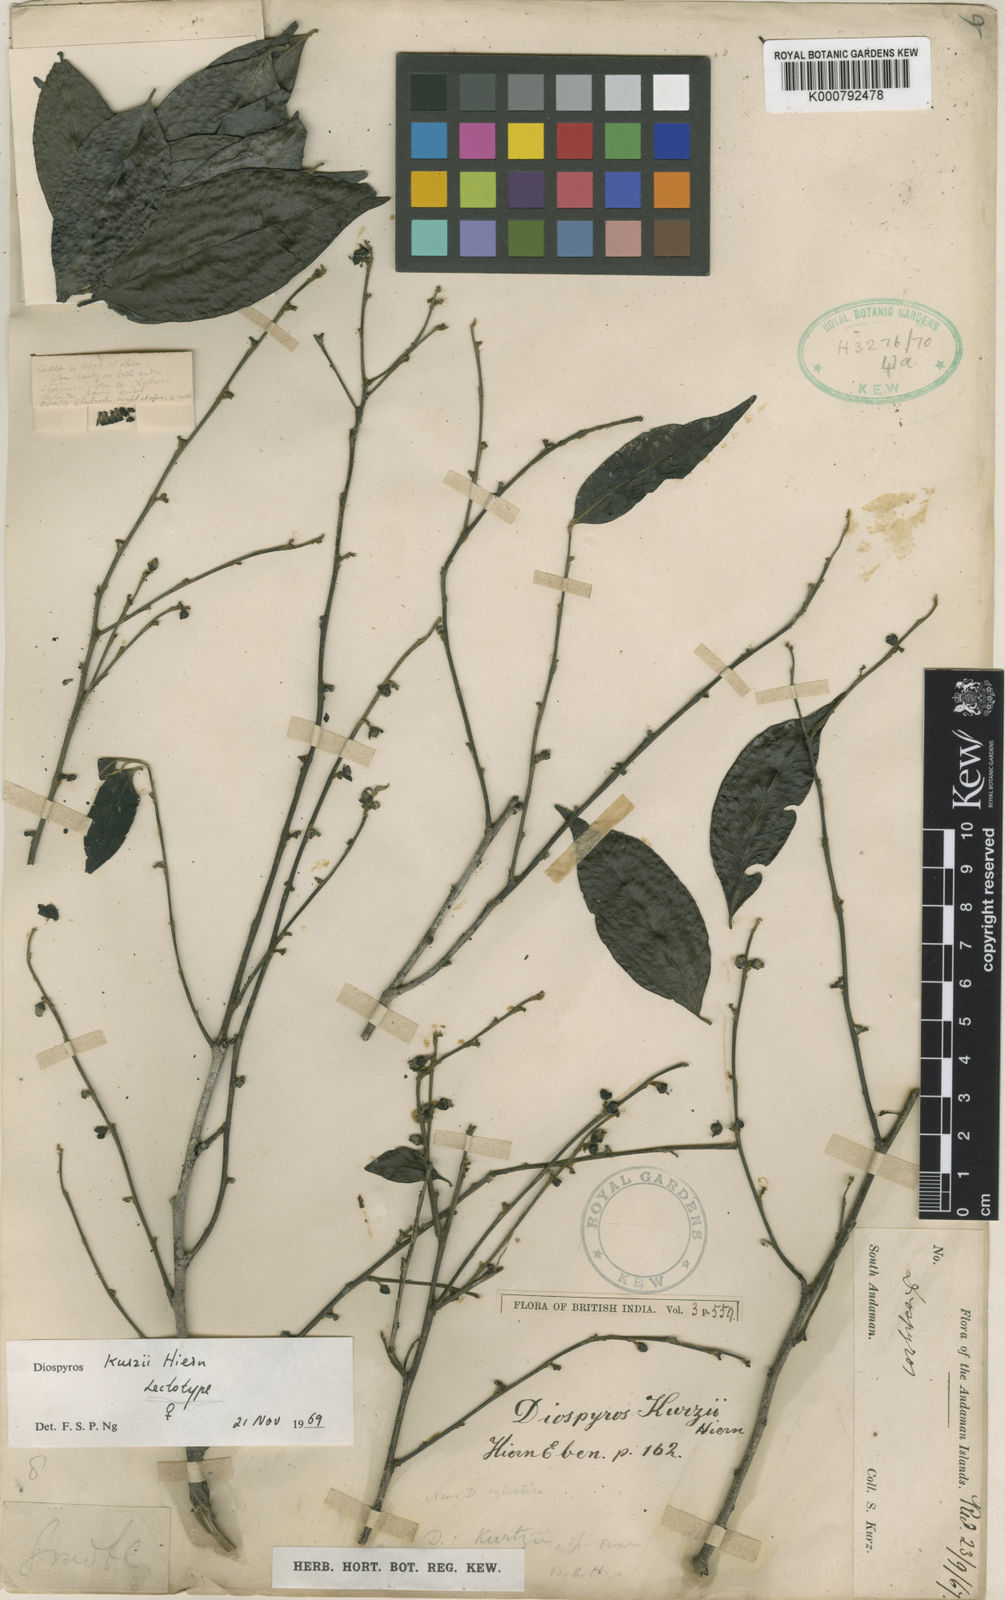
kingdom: Plantae
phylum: Tracheophyta
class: Magnoliopsida
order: Ericales
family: Ebenaceae
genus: Diospyros
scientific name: Diospyros kurzii
